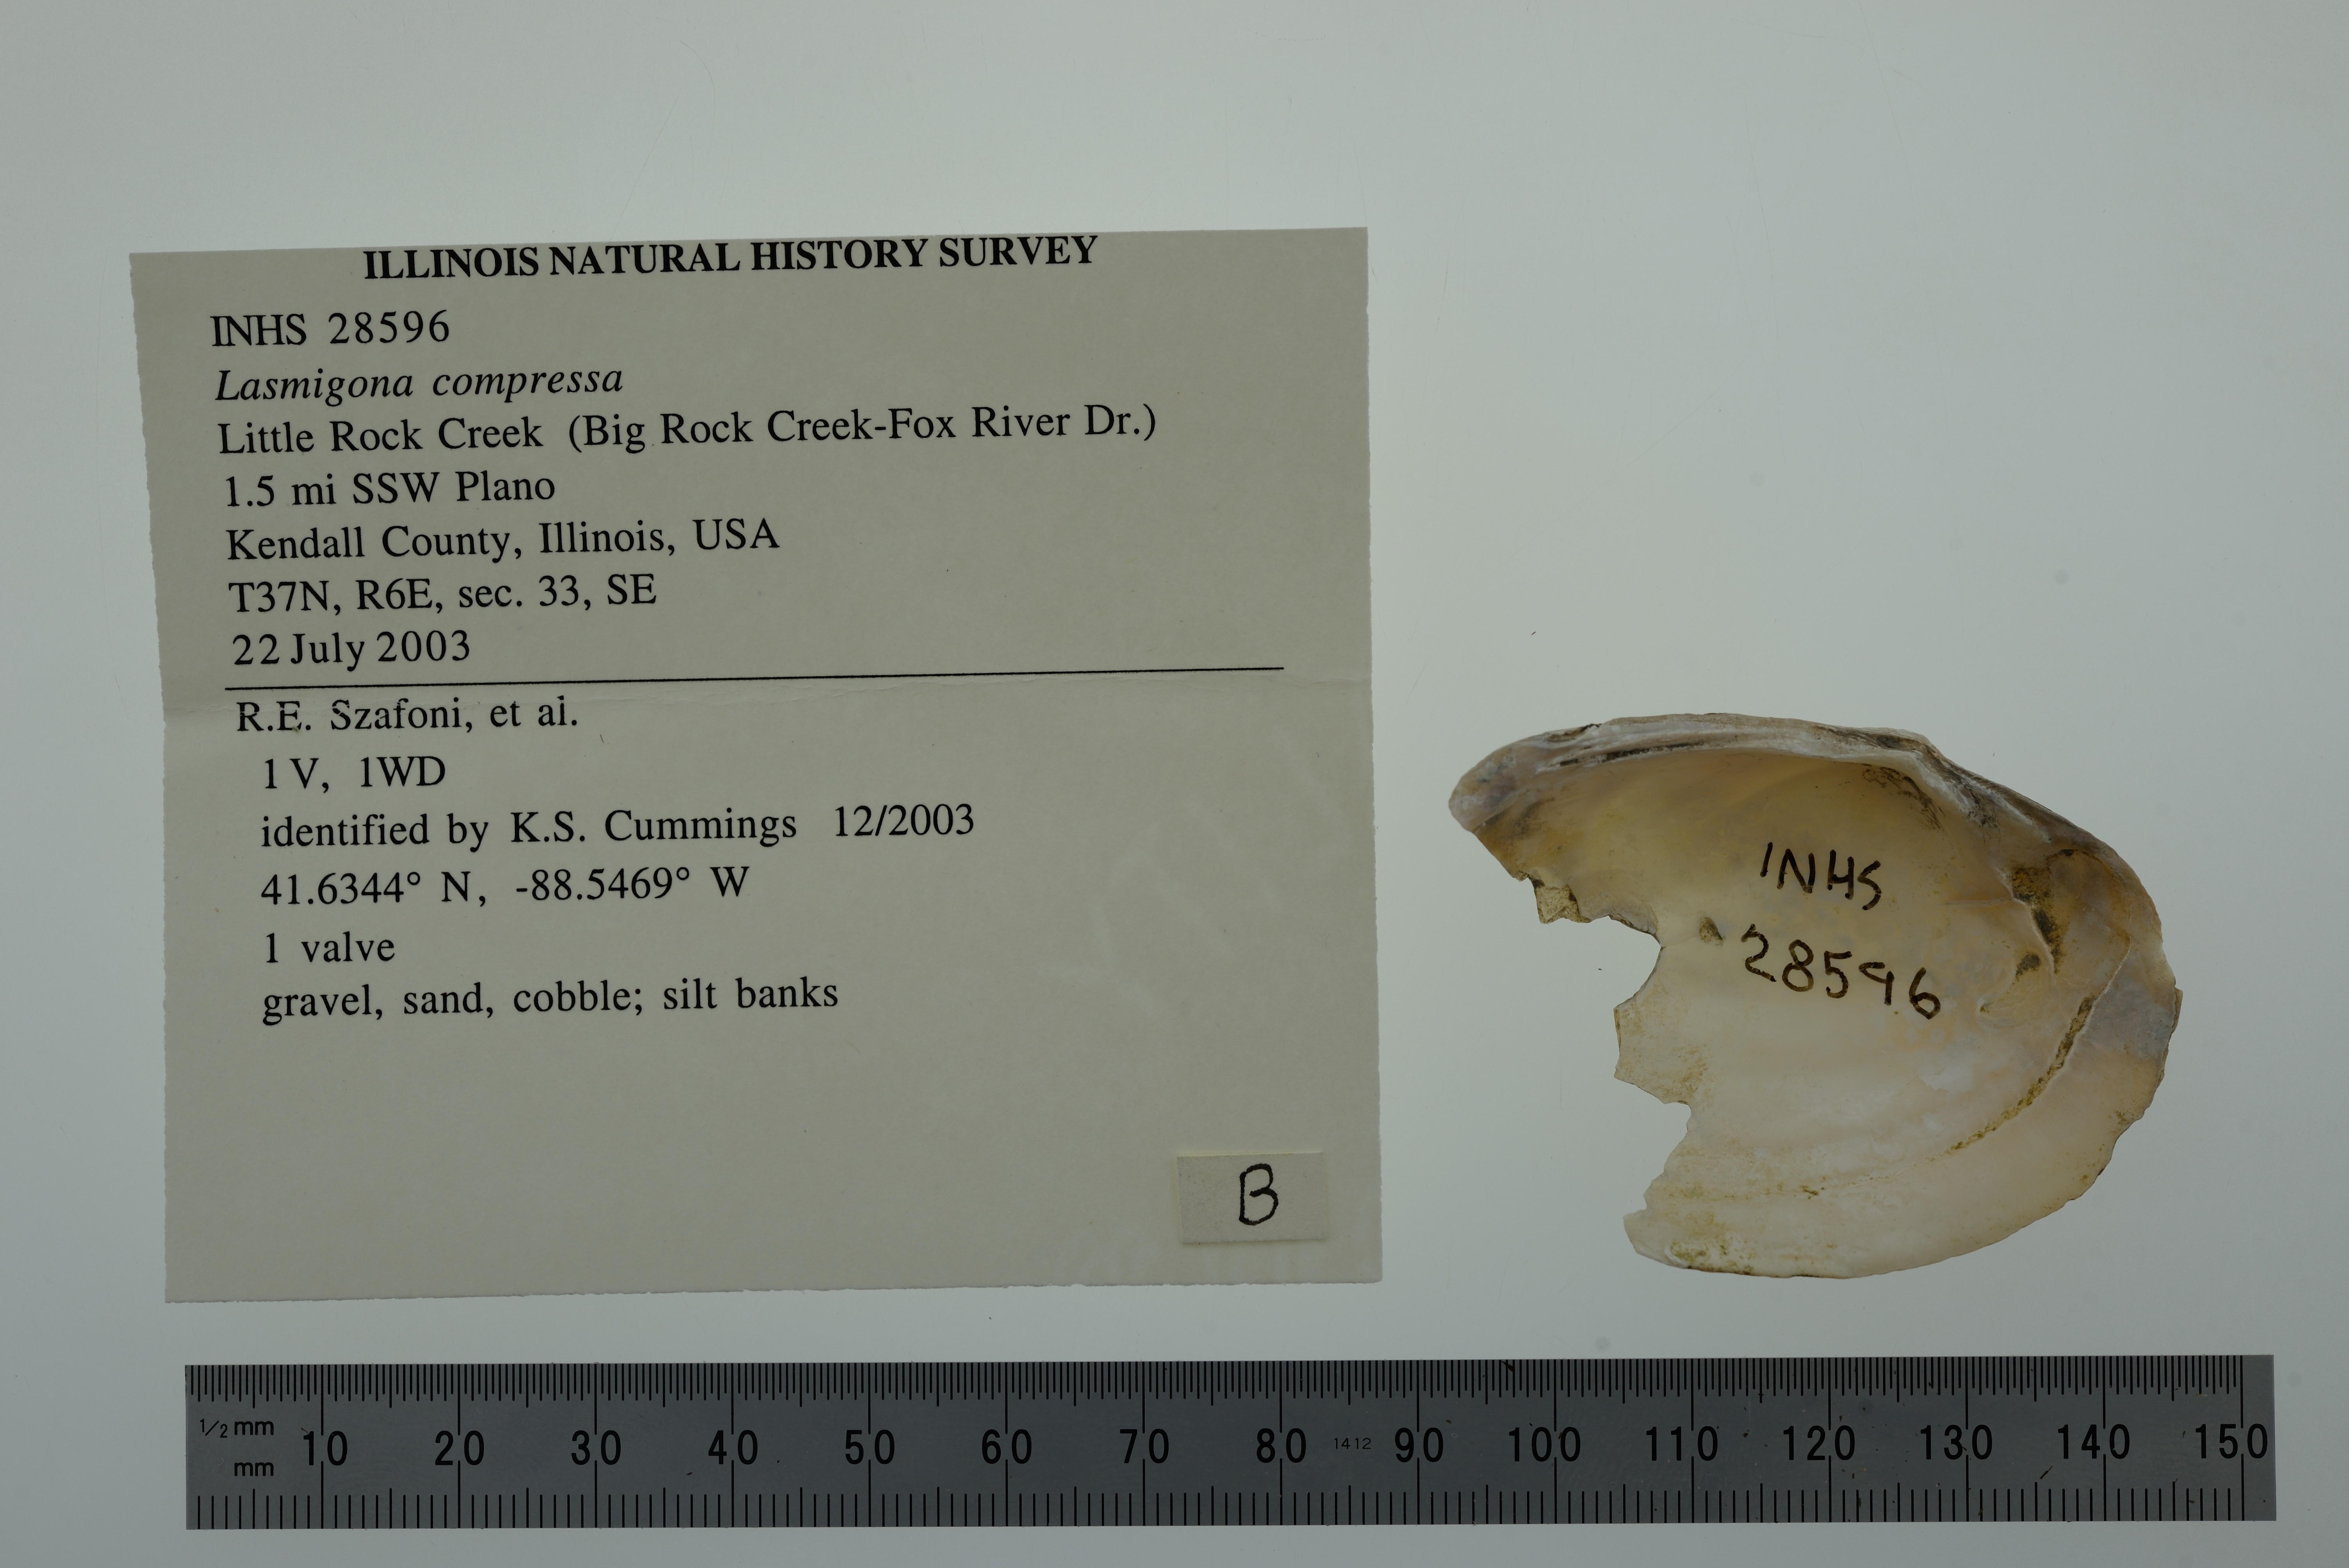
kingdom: Animalia
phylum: Mollusca
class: Bivalvia
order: Unionida
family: Unionidae
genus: Lasmigona
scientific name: Lasmigona compressa
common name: Creek heelsplitter
